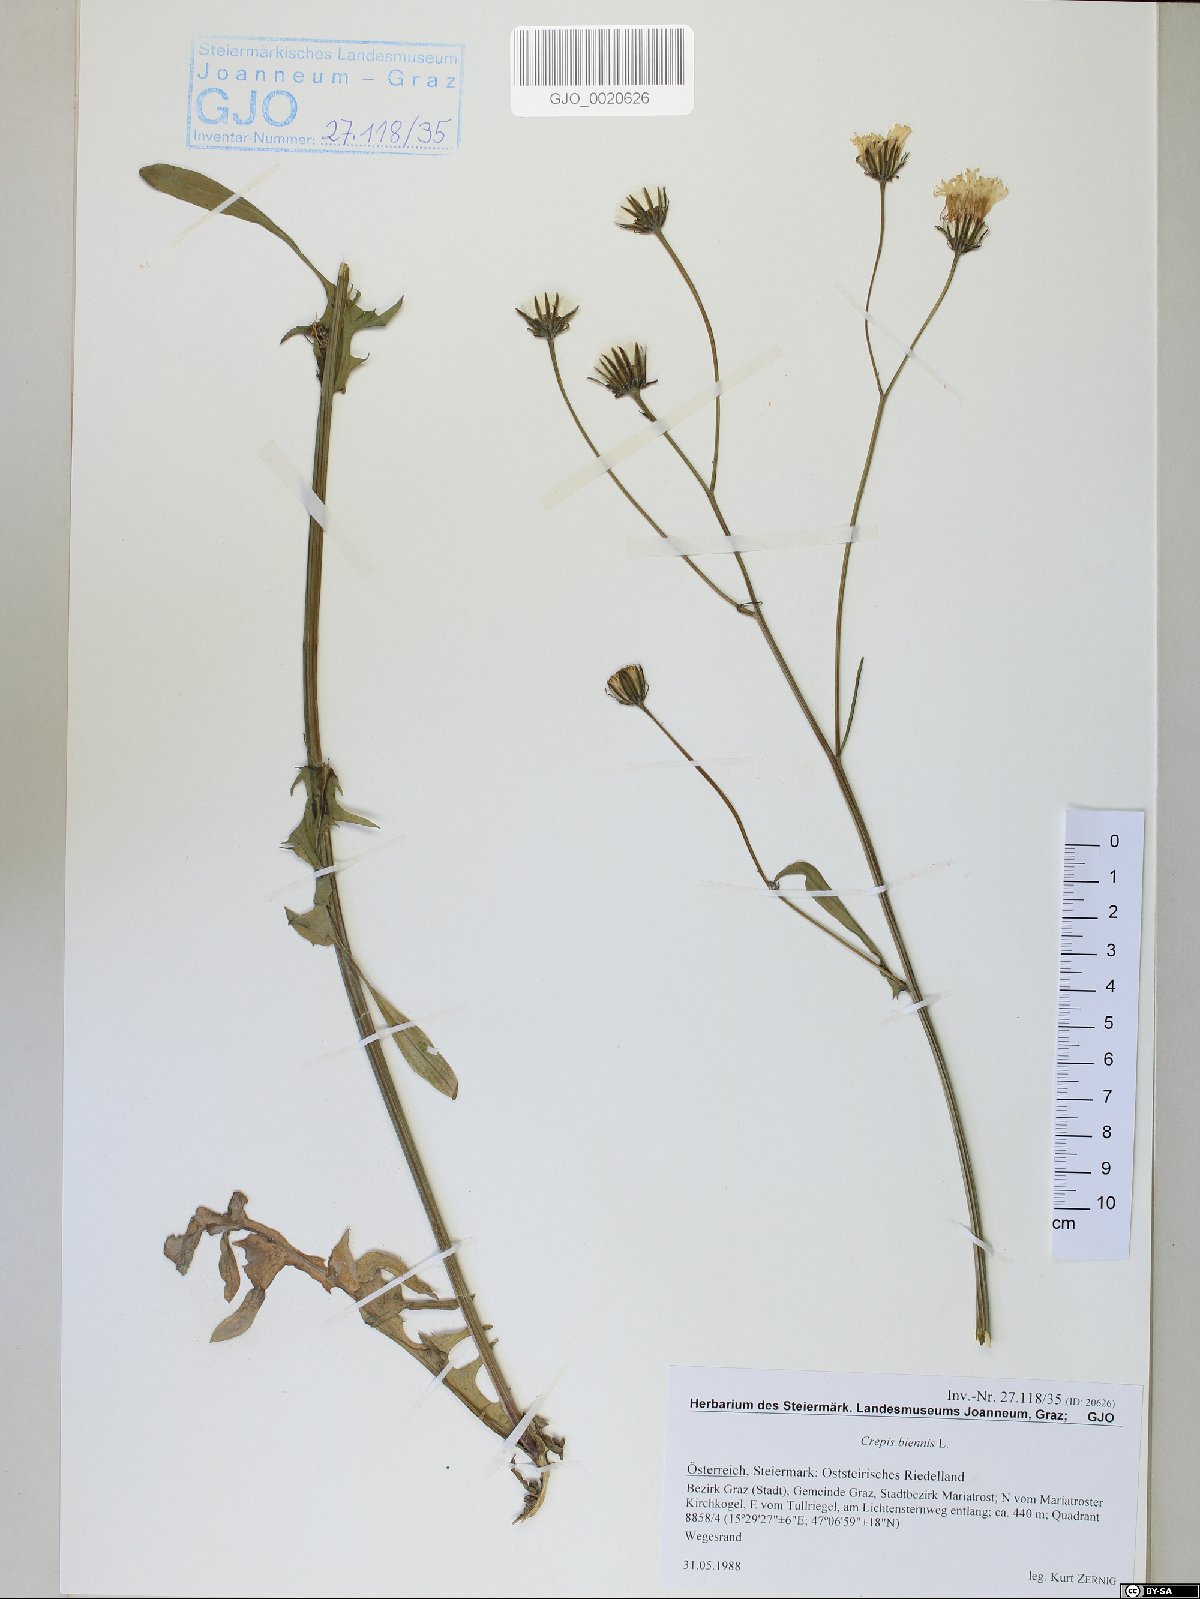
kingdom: Plantae
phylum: Tracheophyta
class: Magnoliopsida
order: Asterales
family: Asteraceae
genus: Crepis
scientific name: Crepis biennis
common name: Rough hawk's-beard
